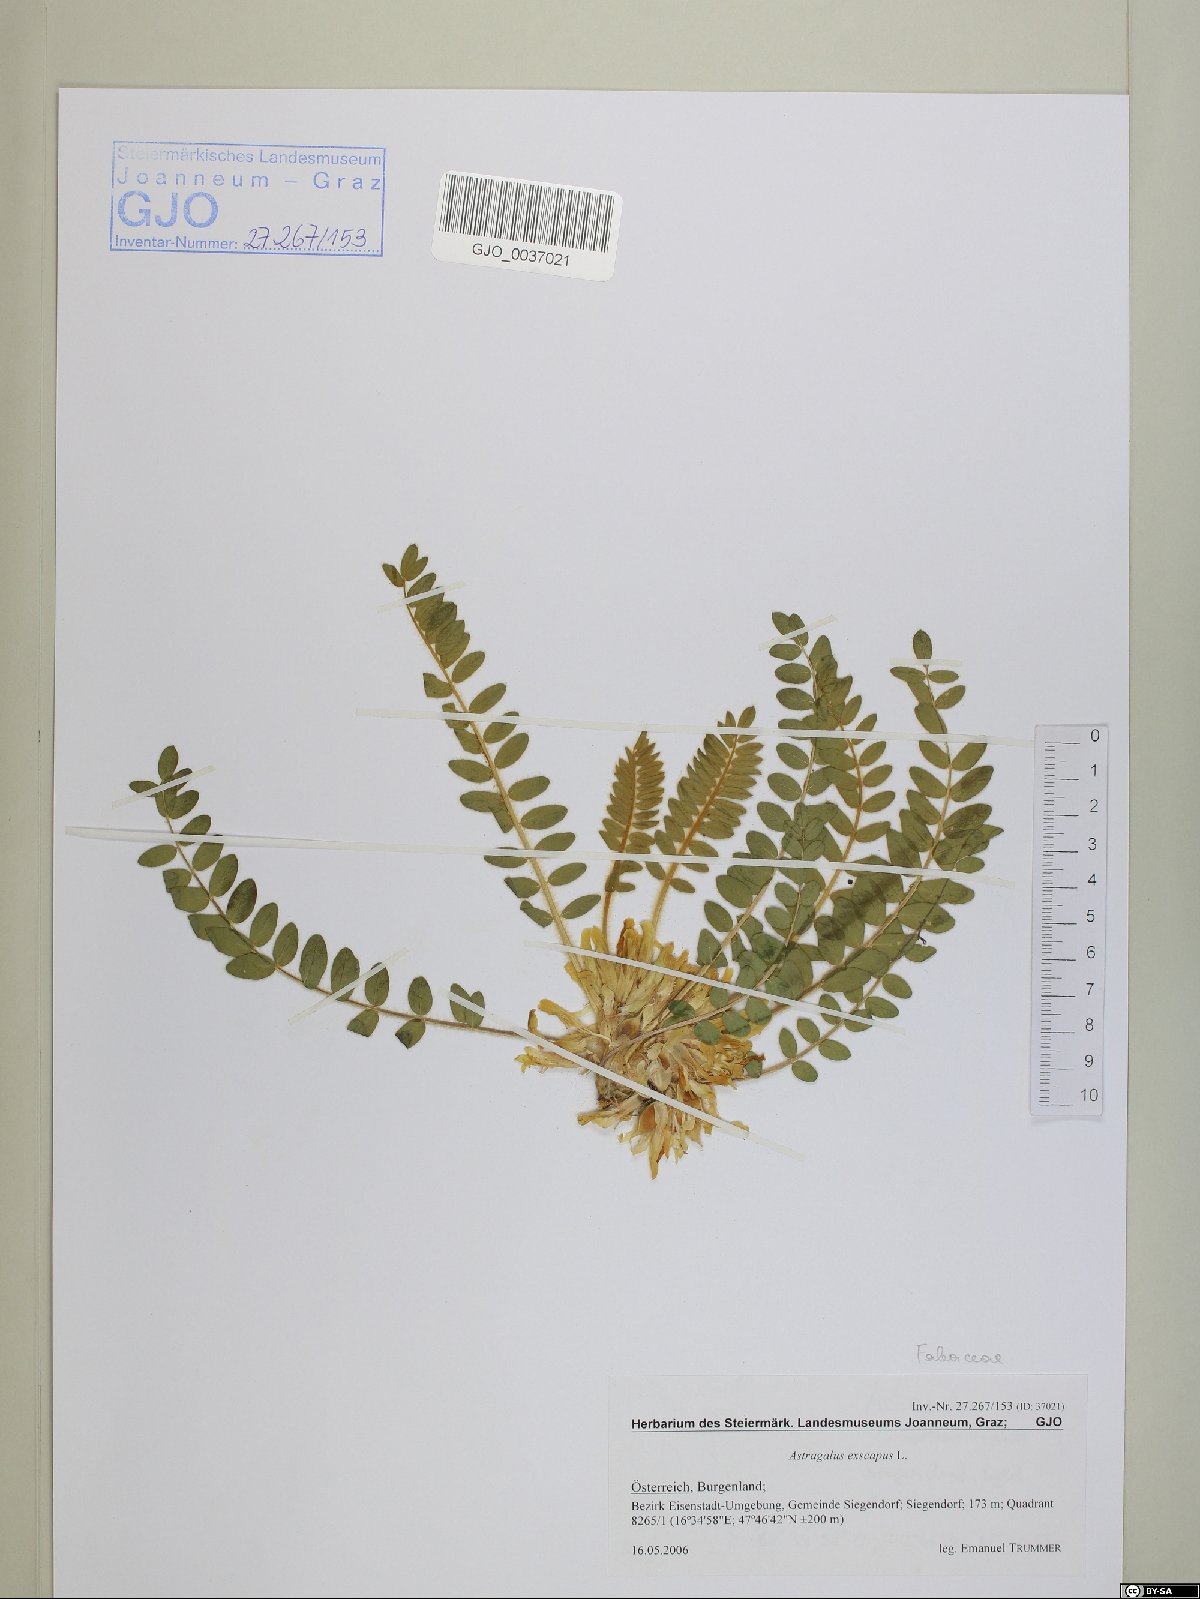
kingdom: Plantae
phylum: Tracheophyta
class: Magnoliopsida
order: Fabales
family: Fabaceae
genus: Astragalus
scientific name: Astragalus exscapus
